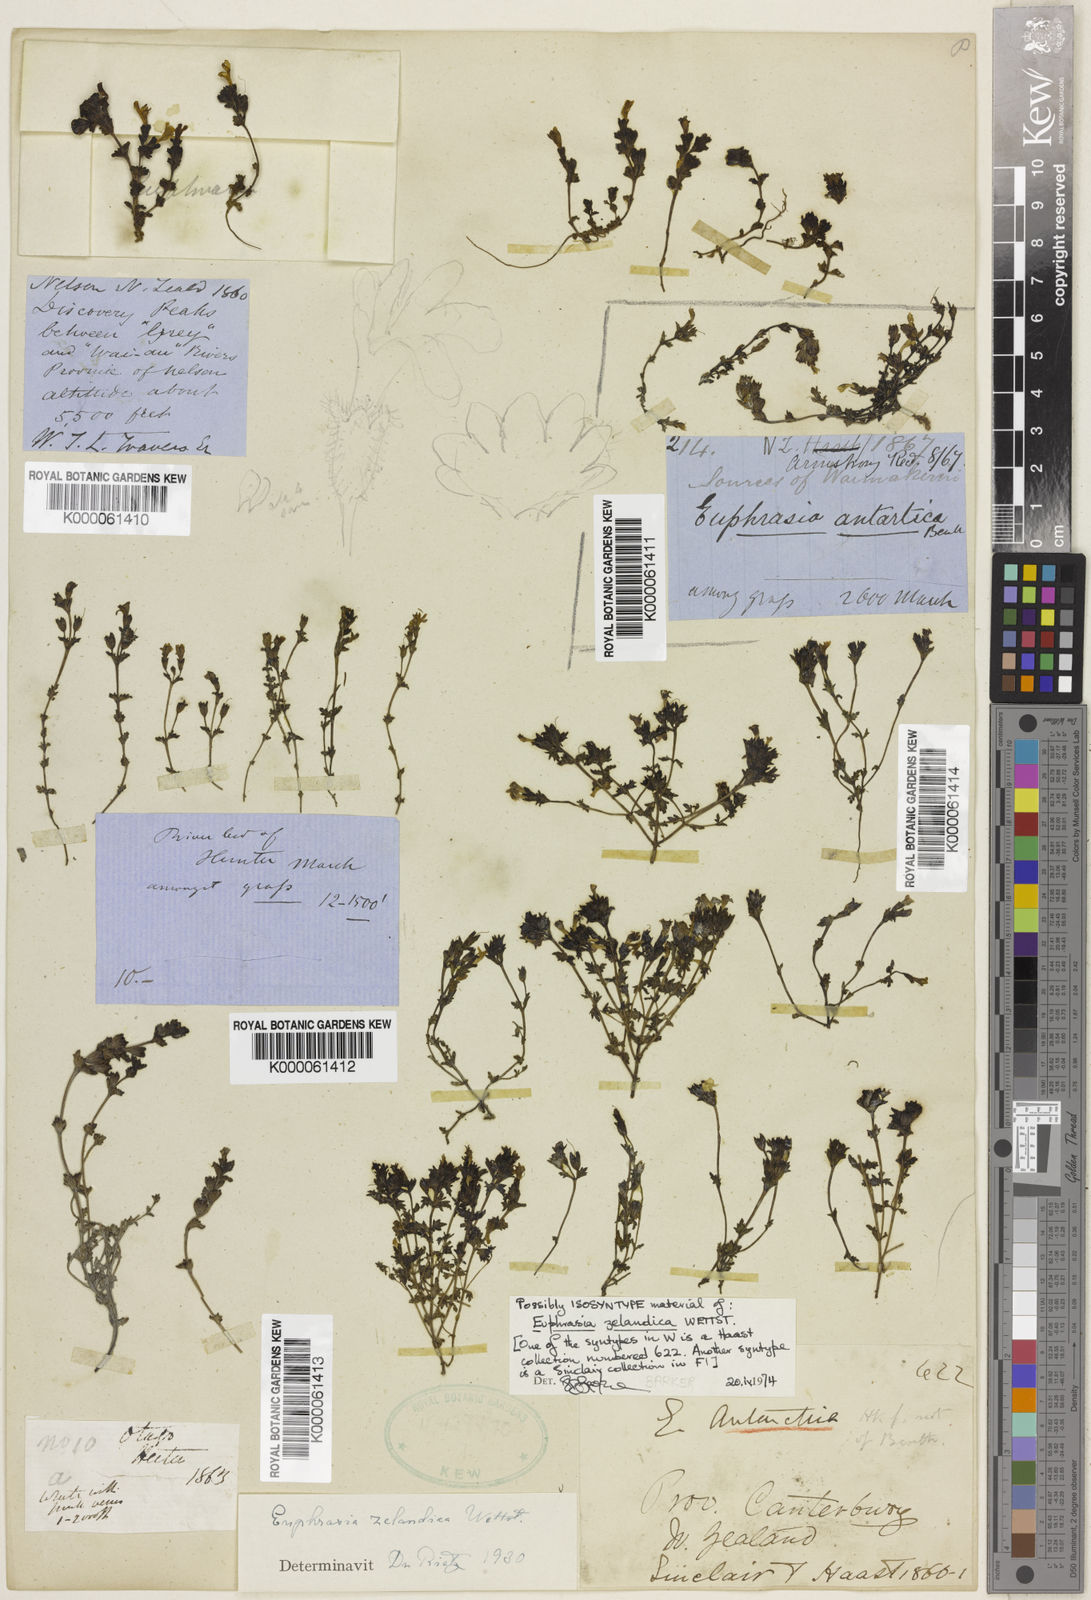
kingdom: Plantae
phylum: Tracheophyta
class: Magnoliopsida
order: Lamiales
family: Orobanchaceae
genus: Euphrasia
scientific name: Euphrasia zelandica
